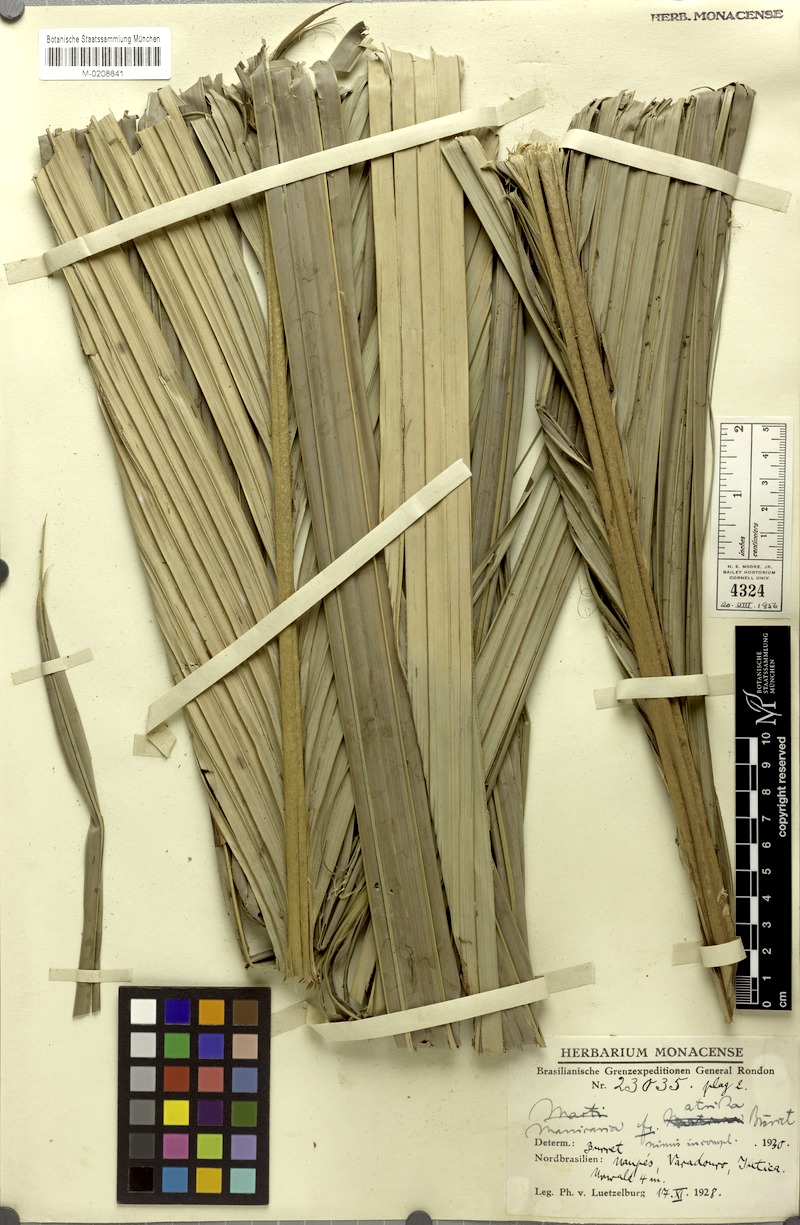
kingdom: Plantae
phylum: Tracheophyta
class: Liliopsida
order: Arecales
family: Arecaceae
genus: Manicaria
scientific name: Manicaria saccifera
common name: Sea coconut
